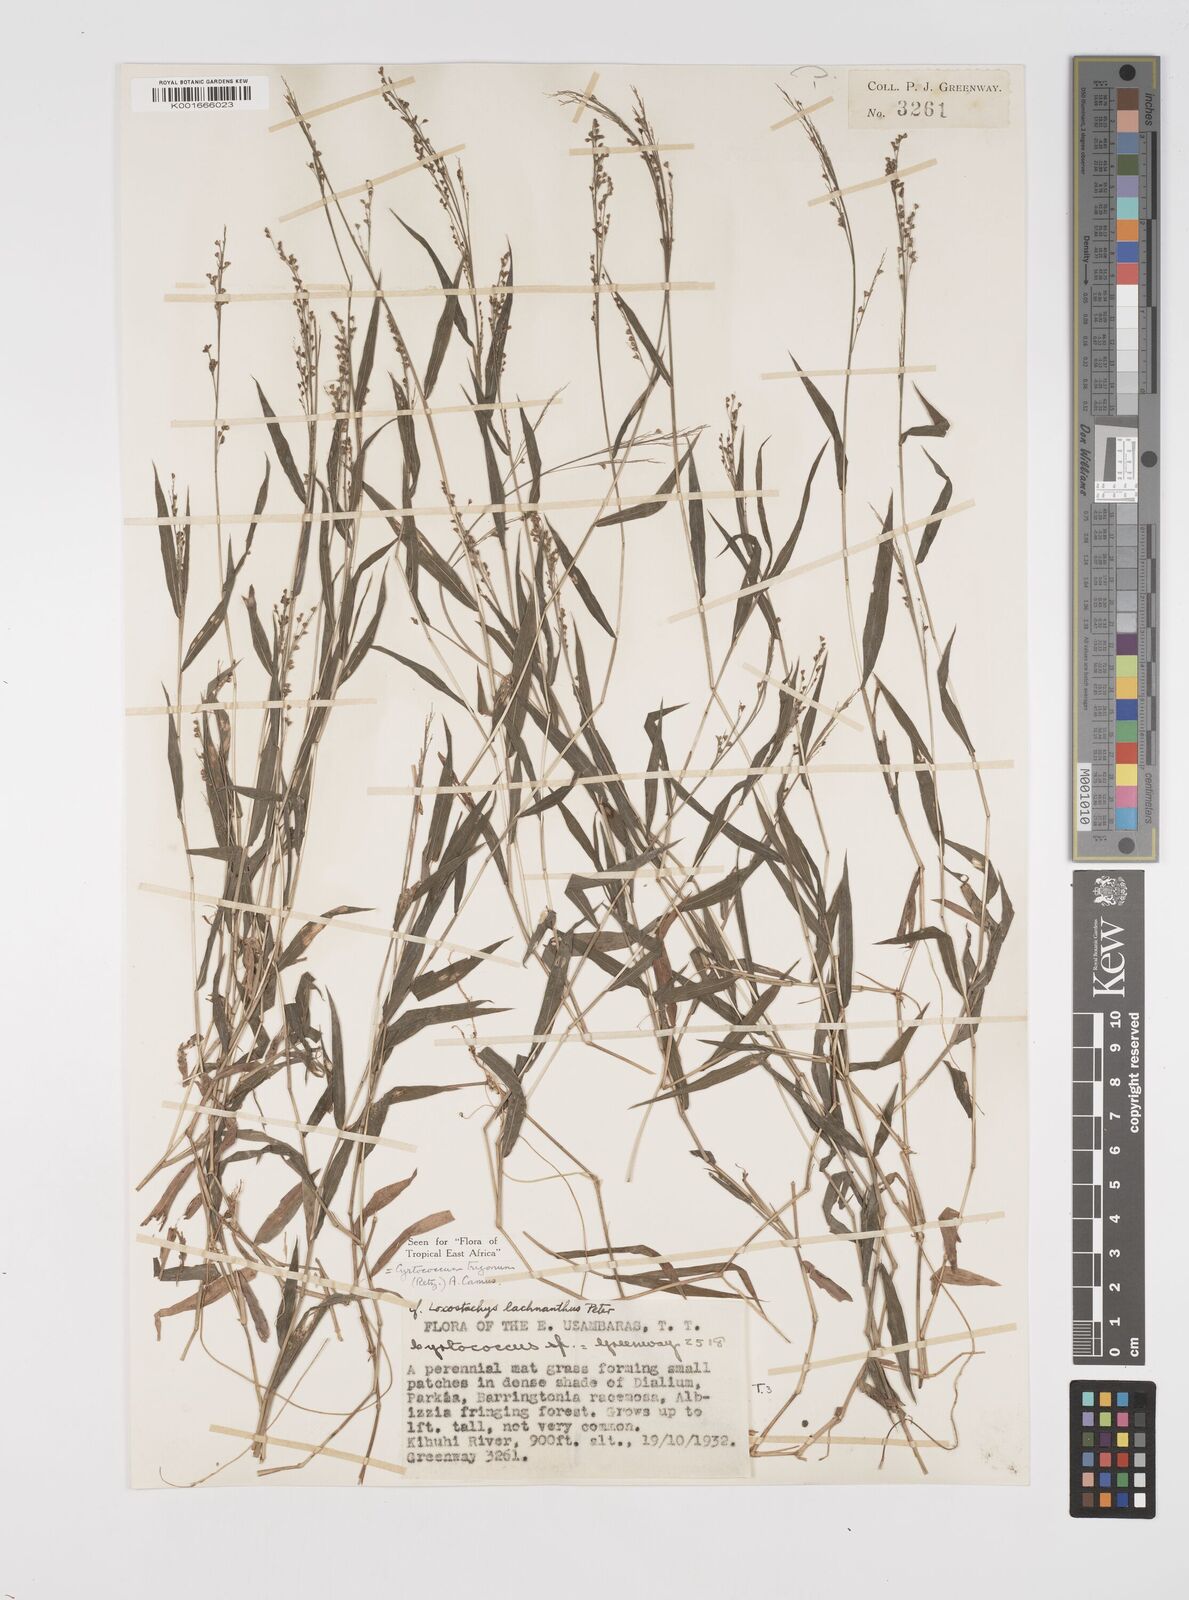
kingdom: Plantae
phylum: Tracheophyta
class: Liliopsida
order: Poales
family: Poaceae
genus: Cyrtococcum
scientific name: Cyrtococcum trigonum
